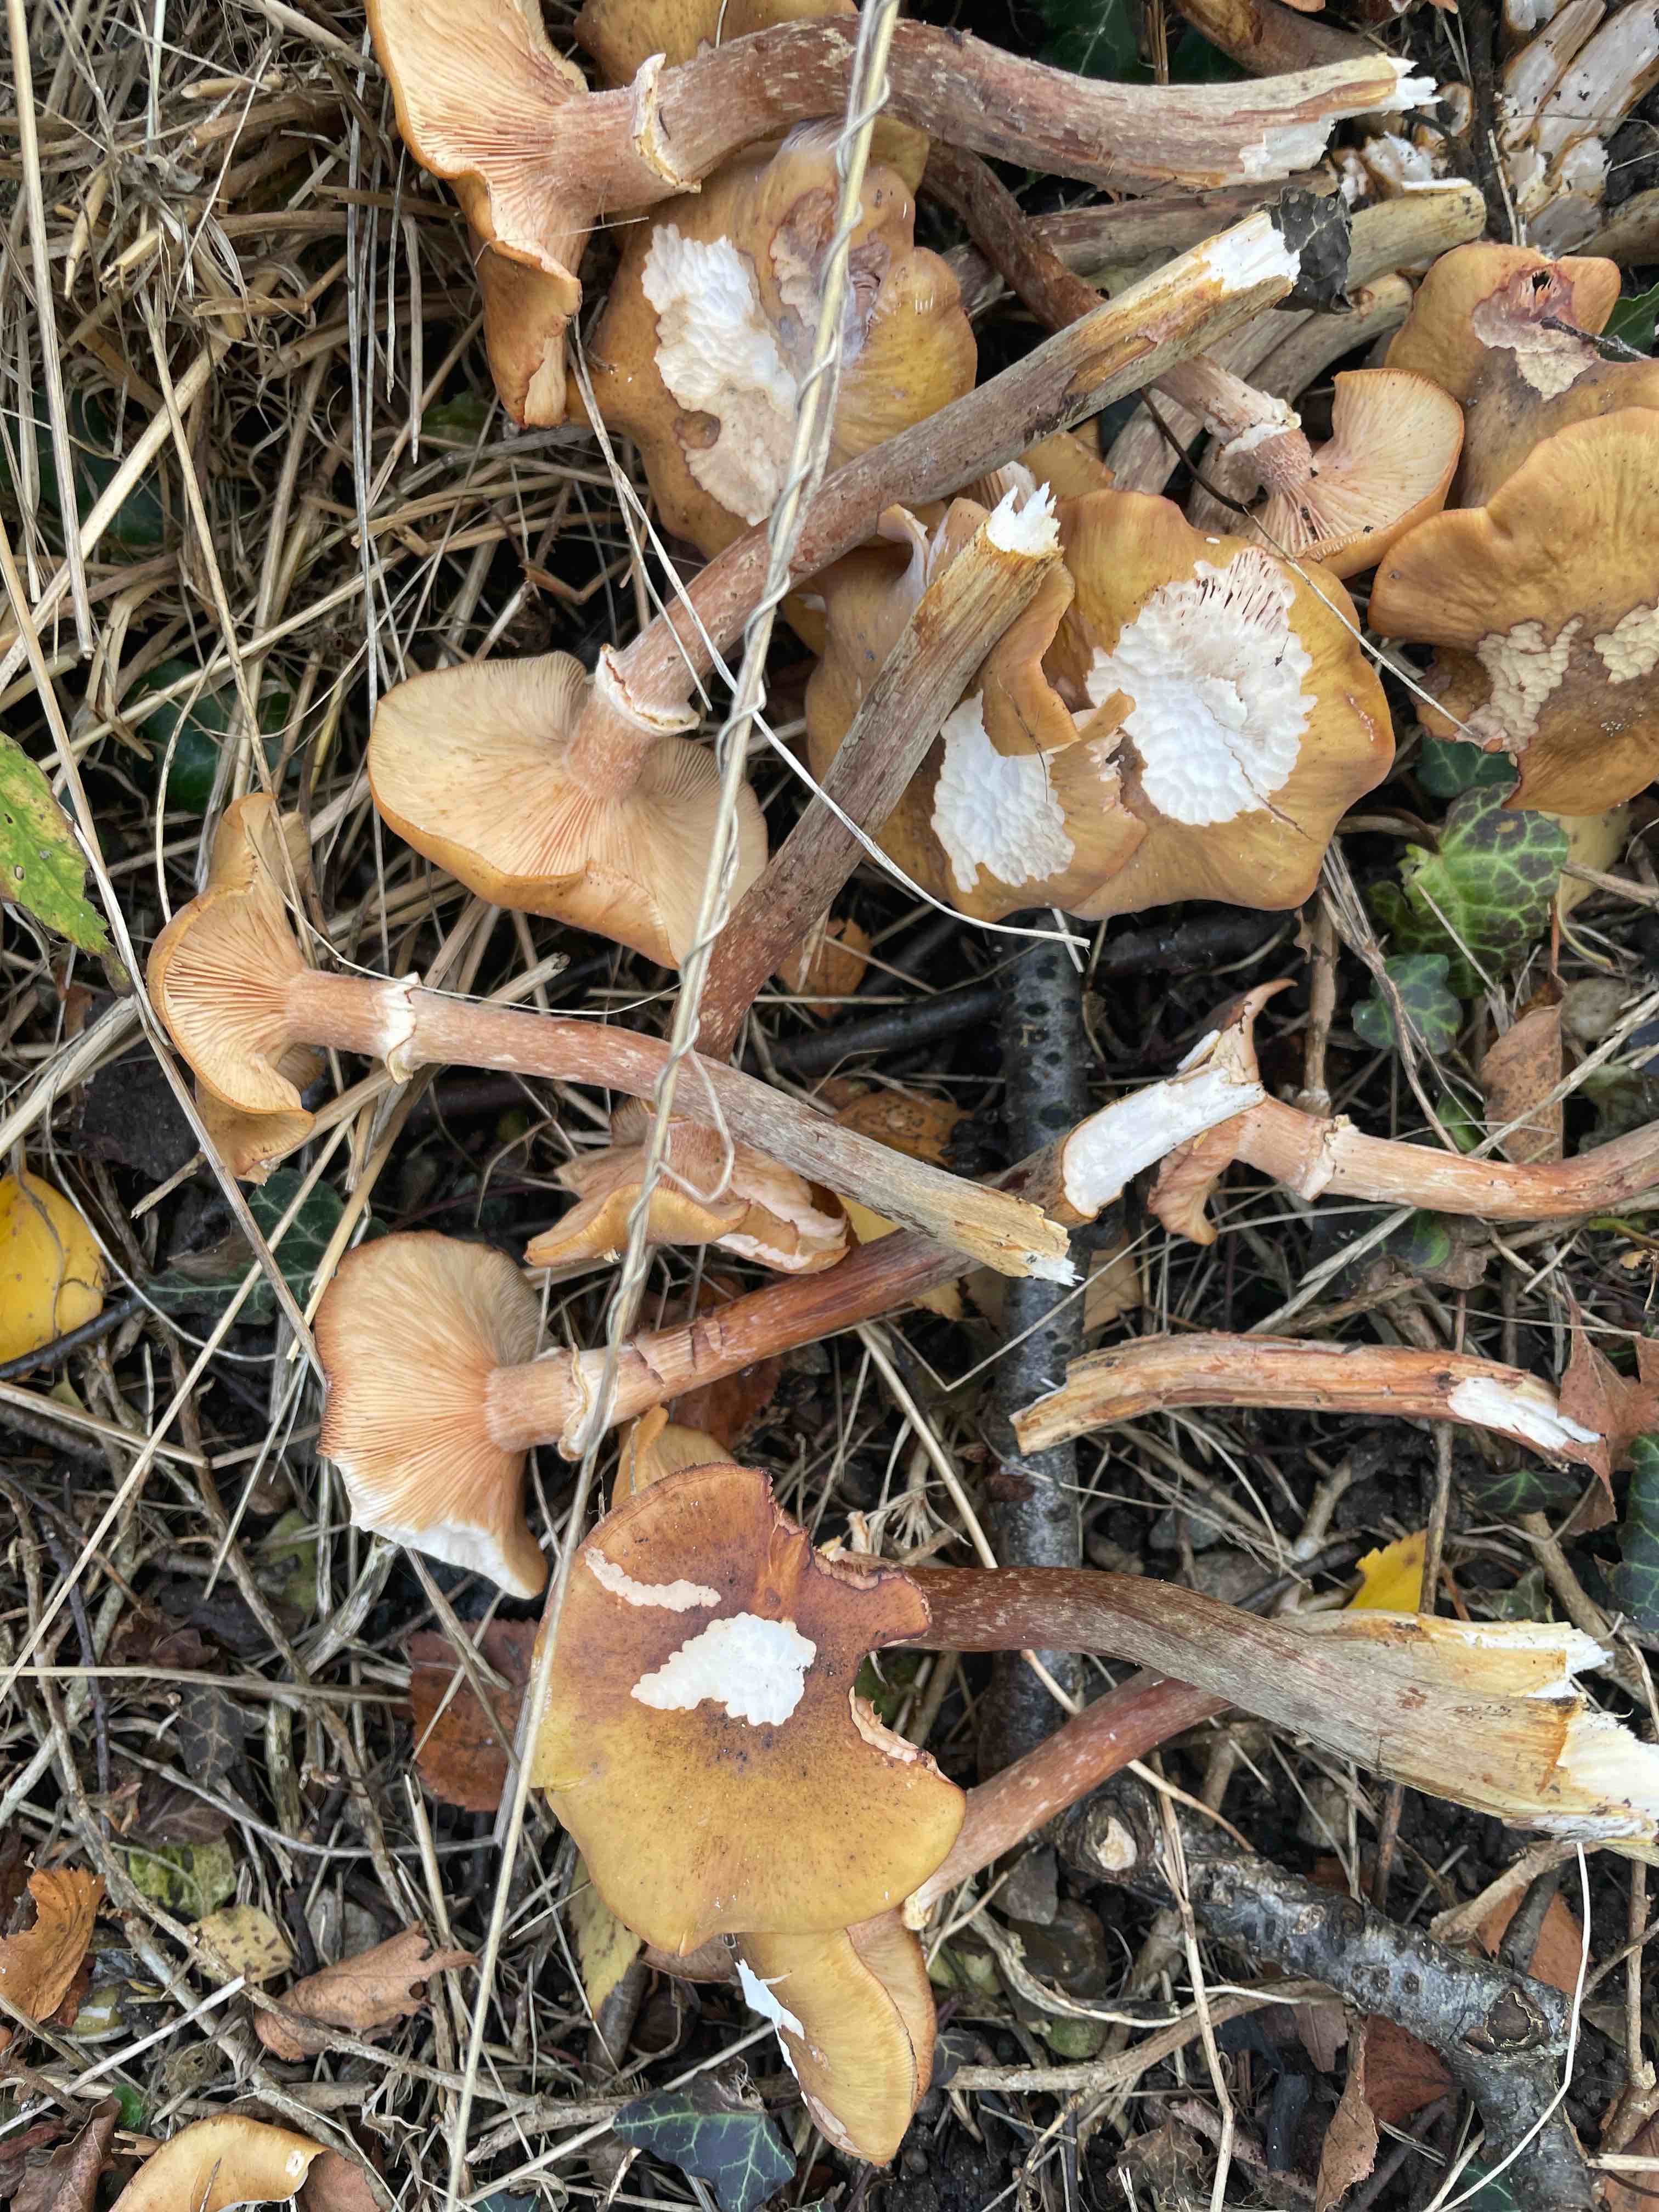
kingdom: Fungi
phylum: Basidiomycota
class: Agaricomycetes
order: Agaricales
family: Physalacriaceae
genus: Armillaria
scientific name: Armillaria
